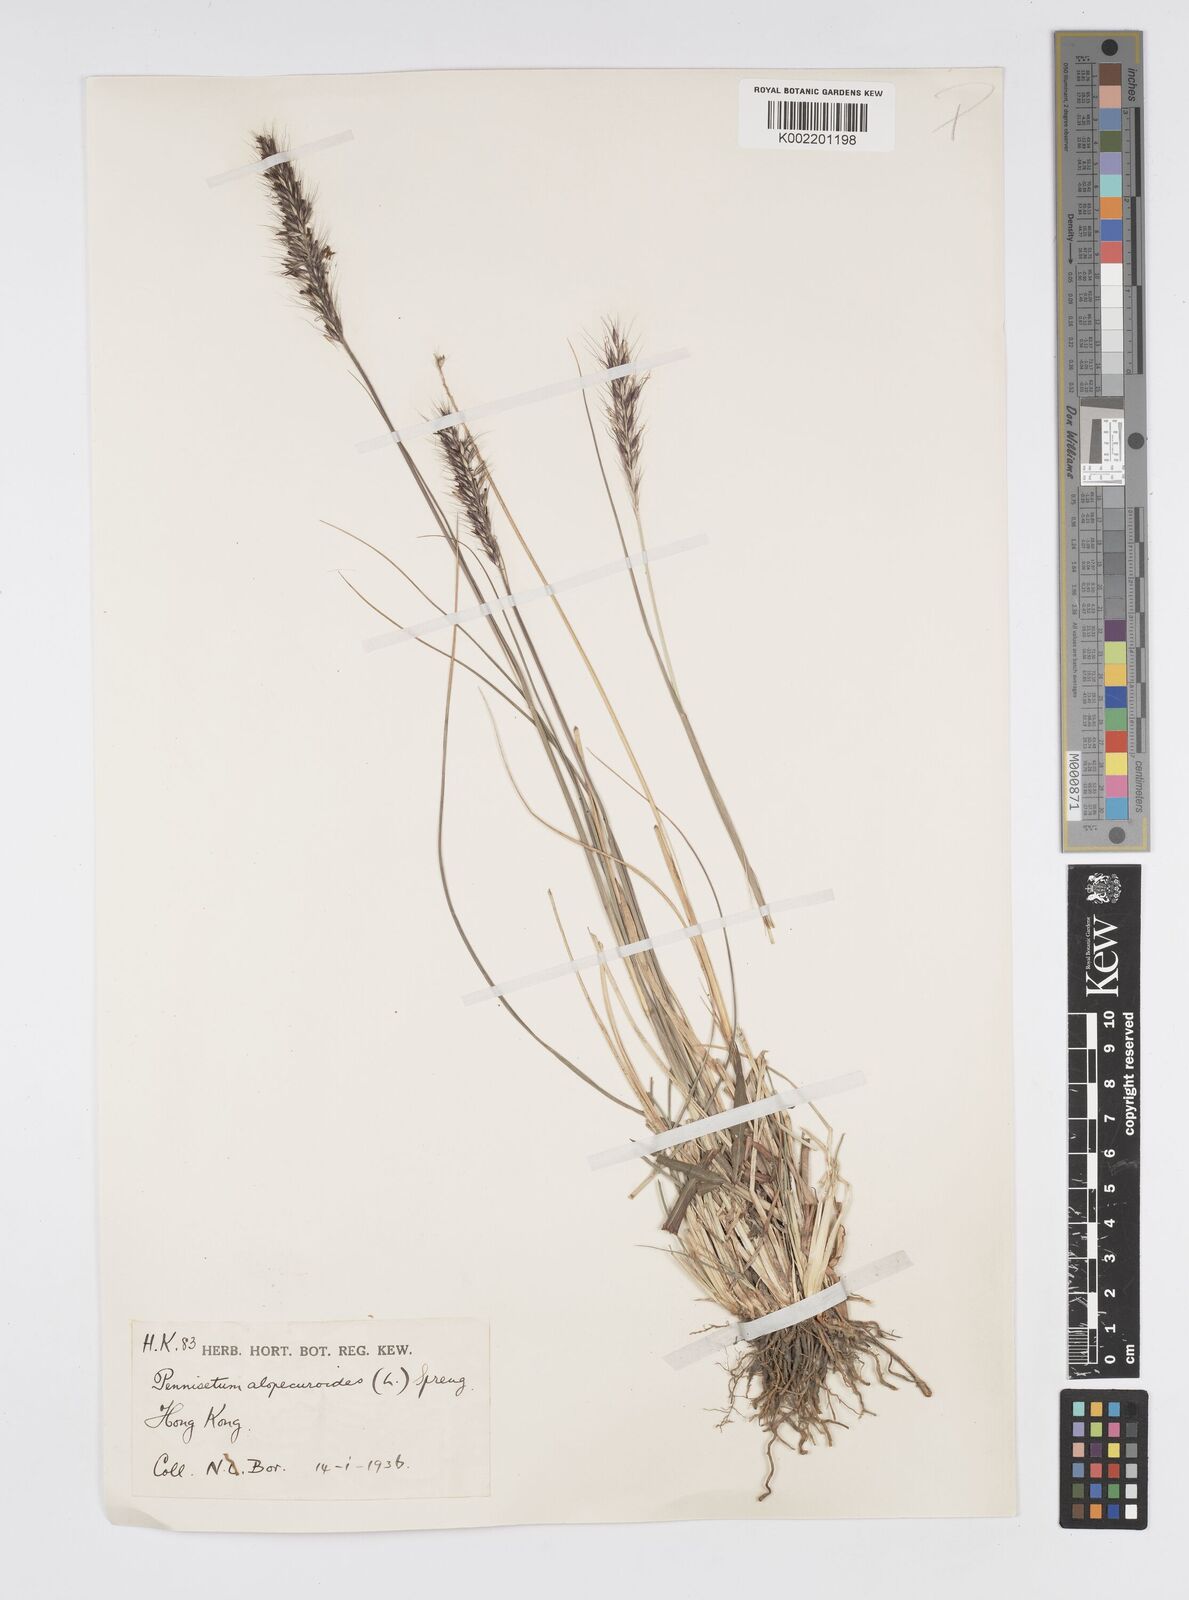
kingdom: Plantae
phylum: Tracheophyta
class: Liliopsida
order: Poales
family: Poaceae
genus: Cenchrus
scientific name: Cenchrus alopecuroides
